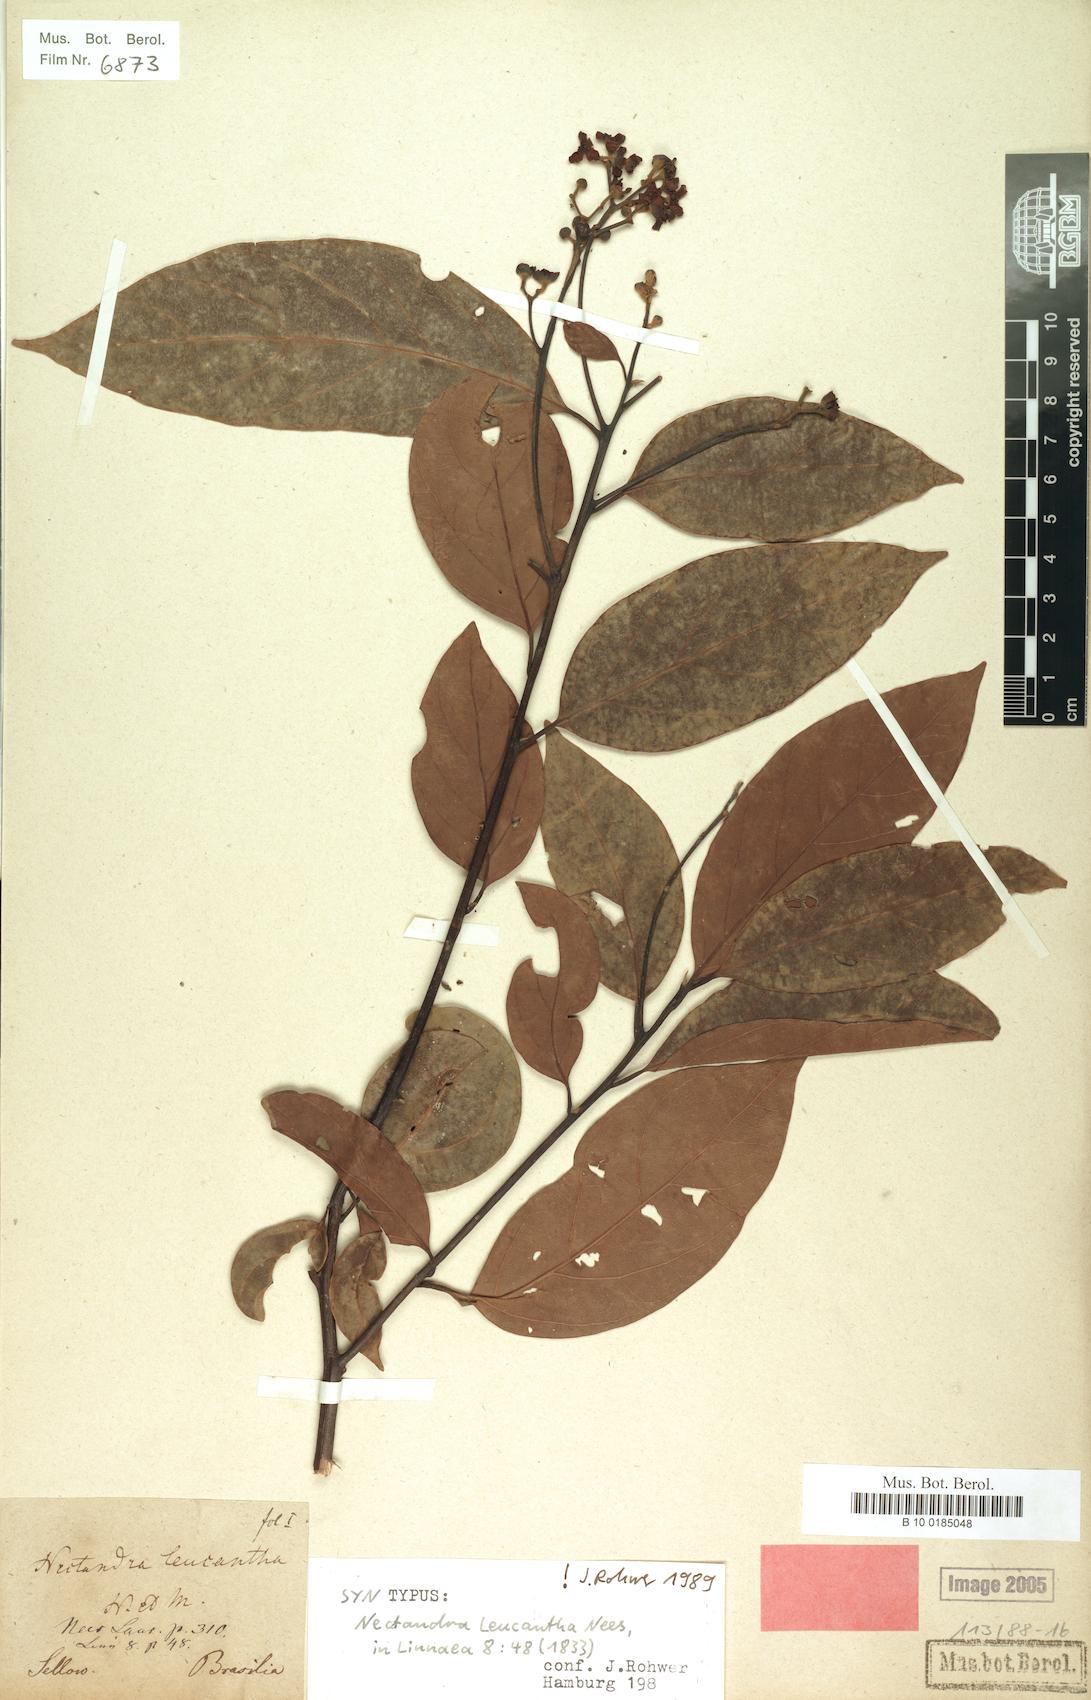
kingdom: Plantae
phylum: Tracheophyta
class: Magnoliopsida
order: Laurales
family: Lauraceae
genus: Nectandra
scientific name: Nectandra leucantha
